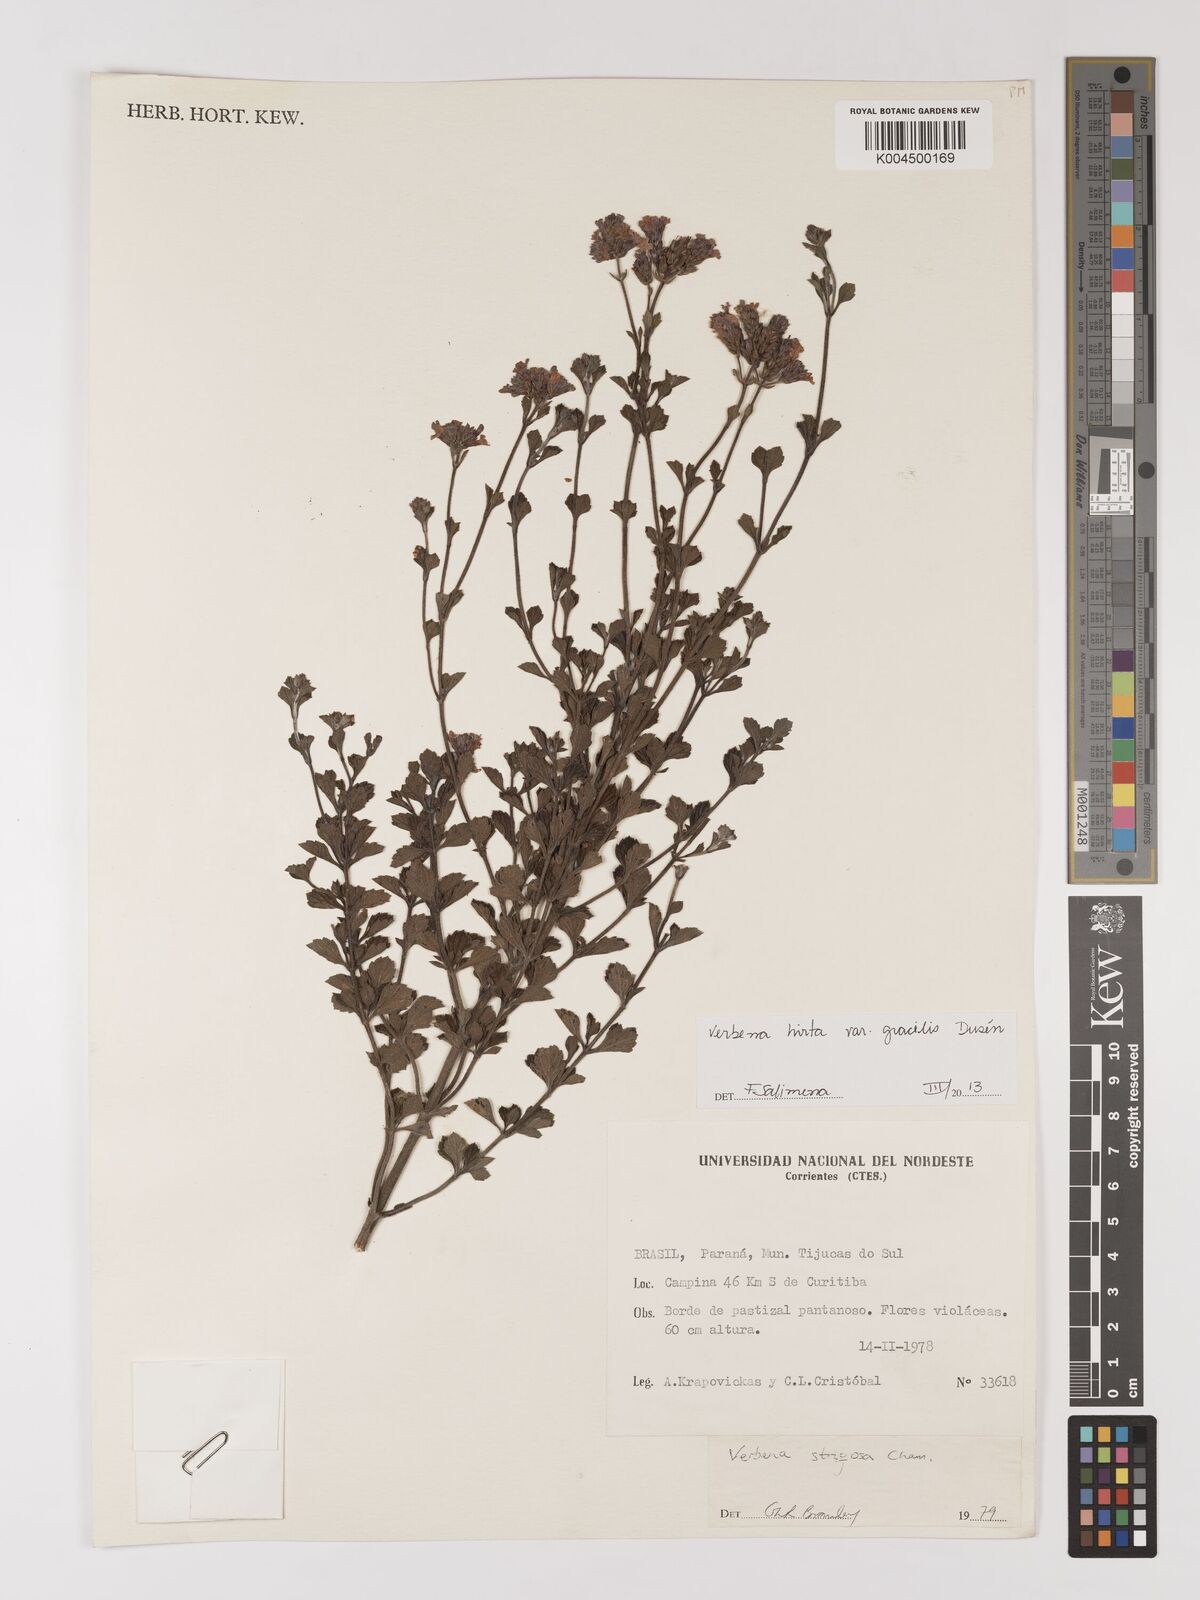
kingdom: Plantae
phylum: Tracheophyta
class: Magnoliopsida
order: Lamiales
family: Verbenaceae
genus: Verbena
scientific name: Verbena hirta
